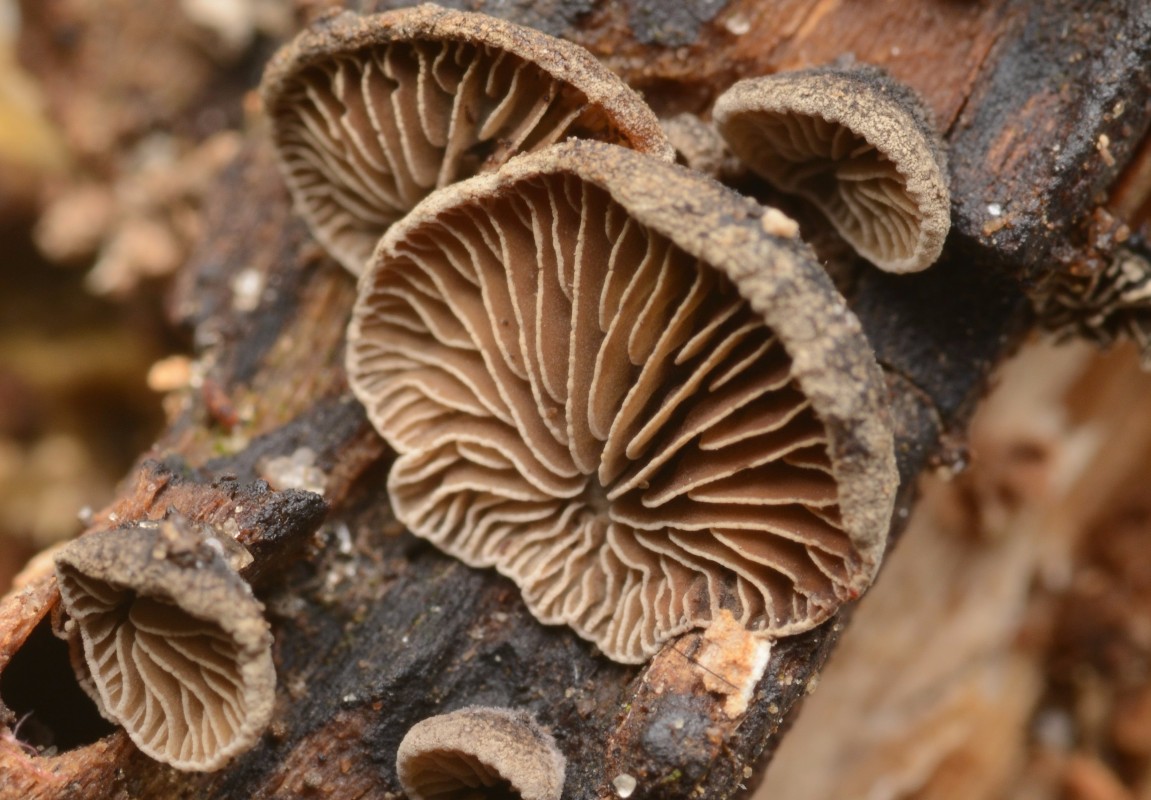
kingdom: Fungi
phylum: Basidiomycota
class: Agaricomycetes
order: Agaricales
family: Pleurotaceae
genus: Resupinatus
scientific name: Resupinatus trichotis
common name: mørkfiltet barkhat
